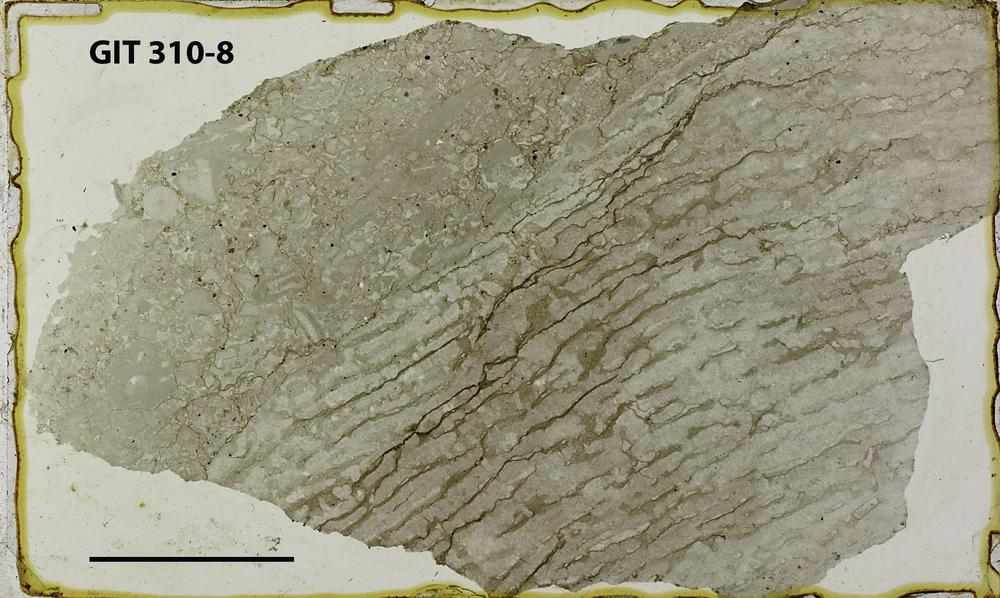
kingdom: Animalia
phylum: Porifera
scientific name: Porifera
